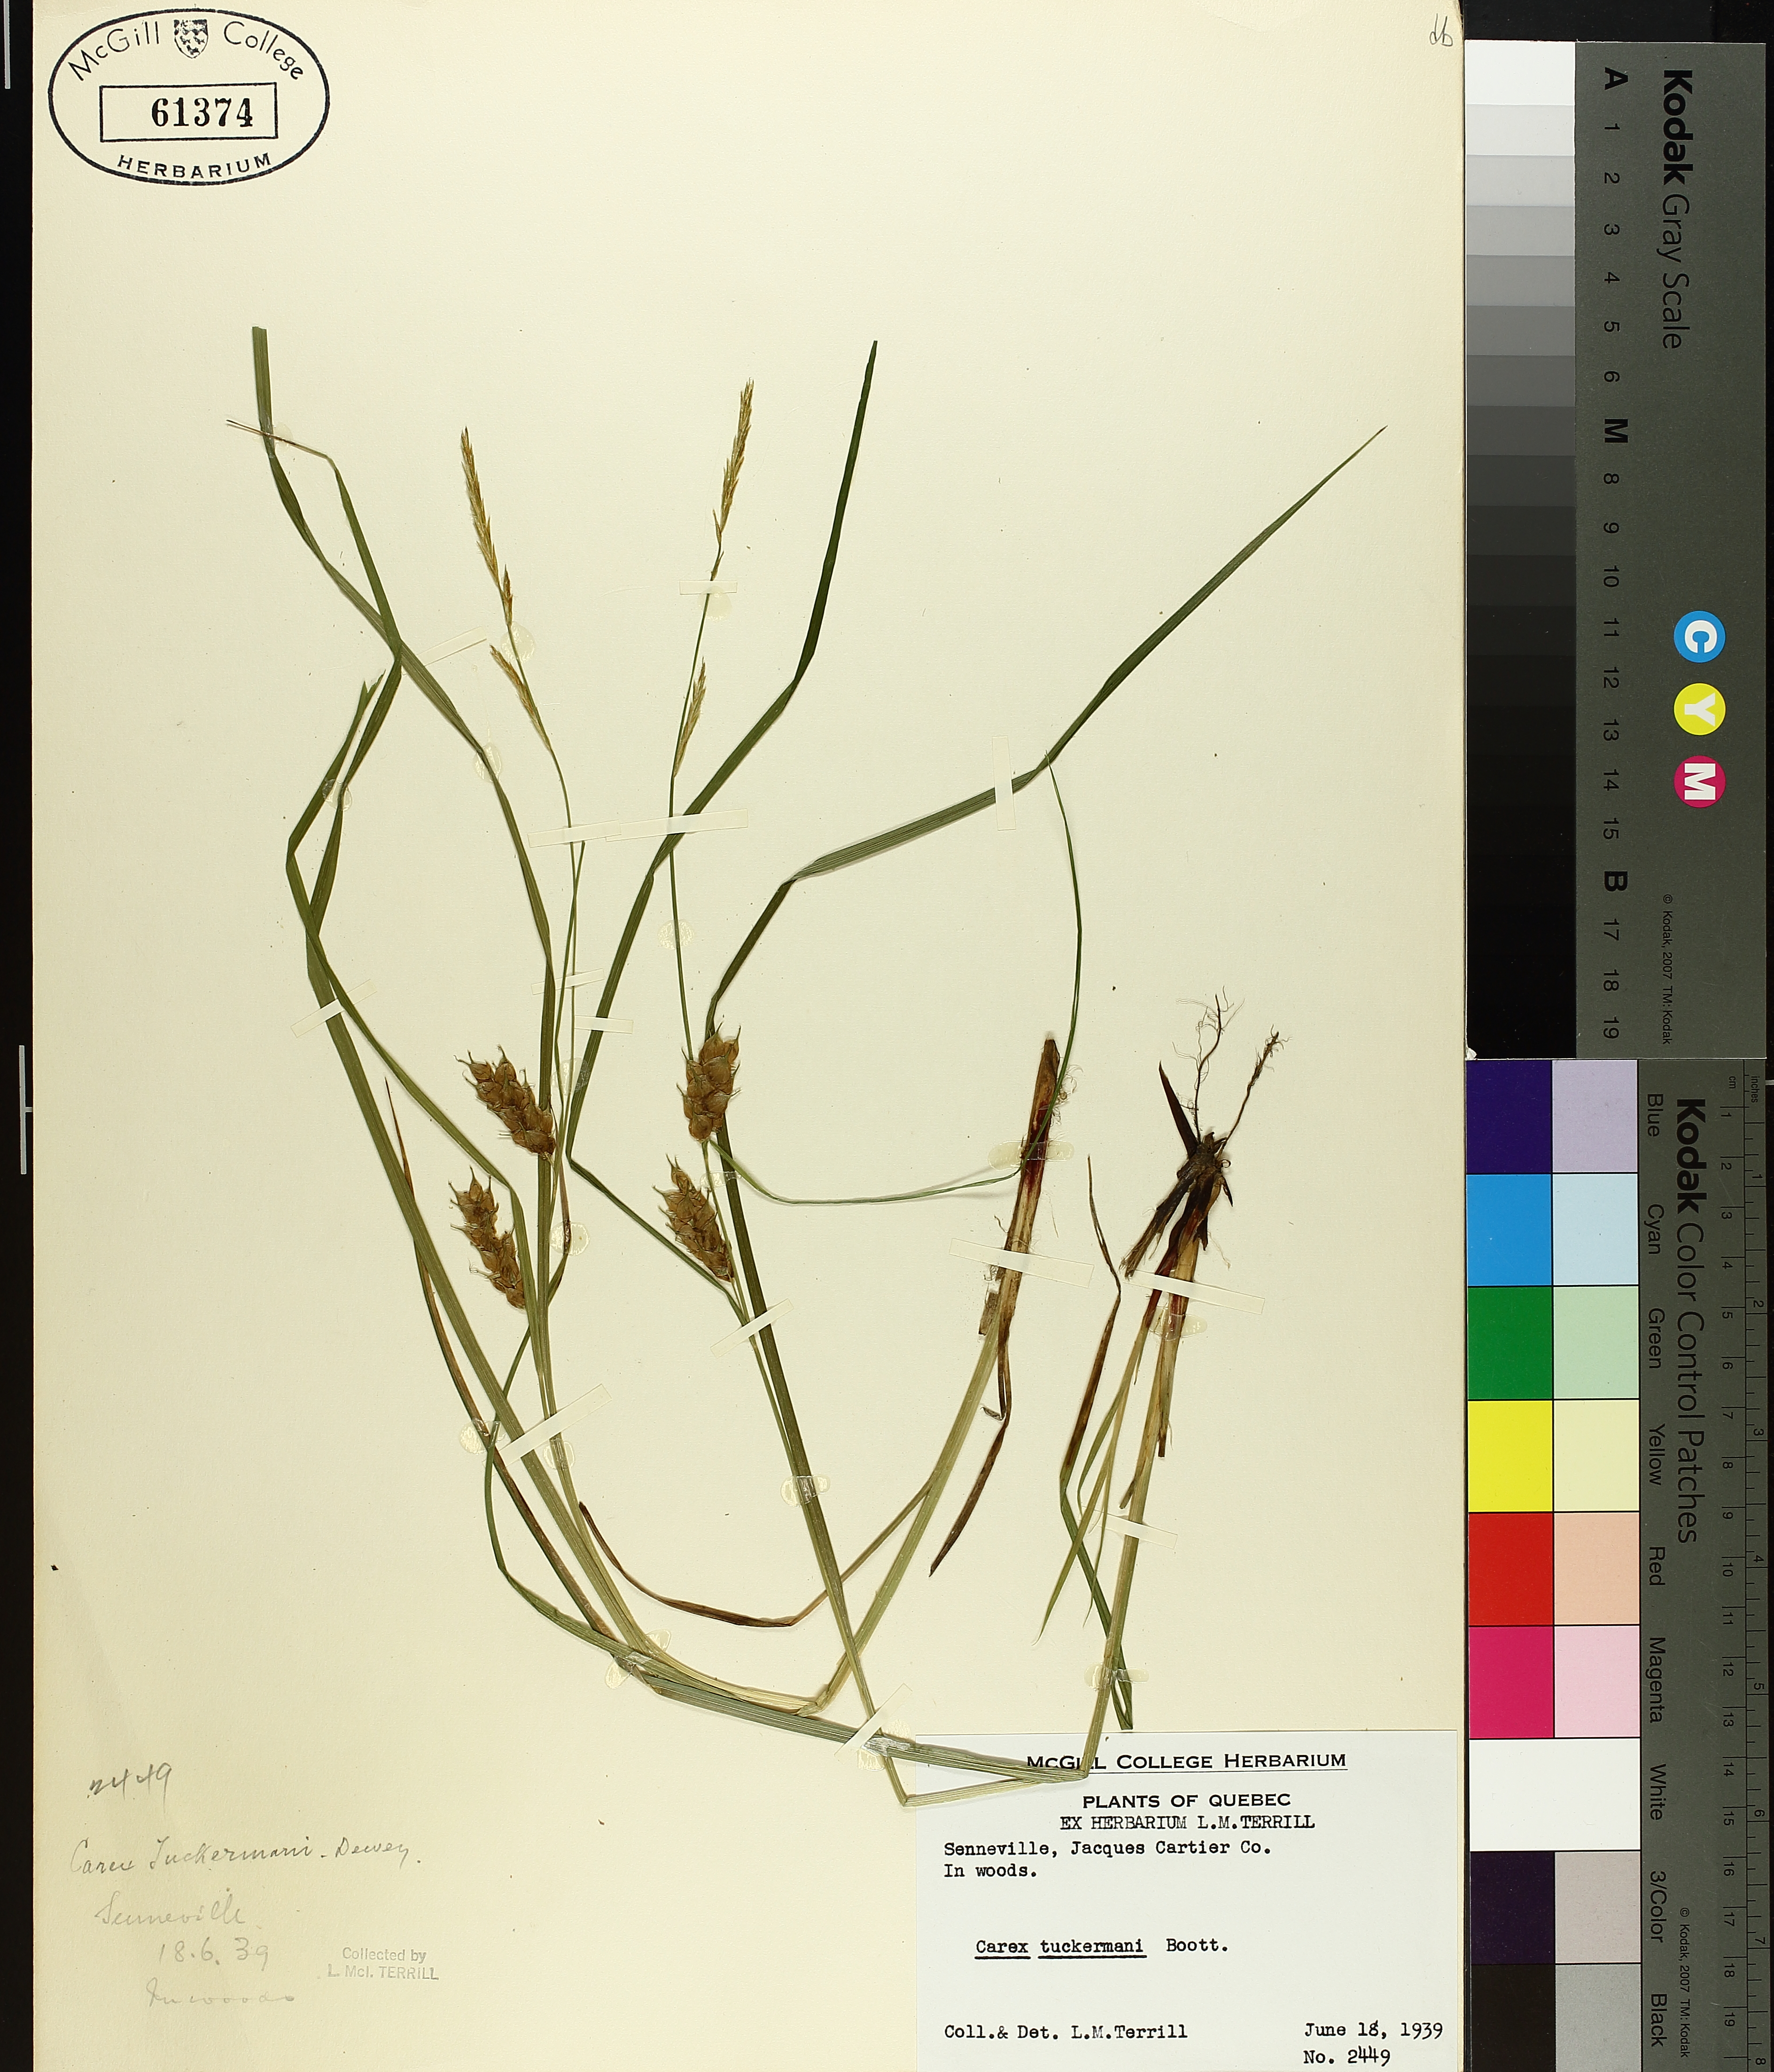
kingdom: Plantae
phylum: Tracheophyta
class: Liliopsida
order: Poales
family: Cyperaceae
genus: Carex
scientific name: Carex tuckermanii
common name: Tuckerman's sedge
